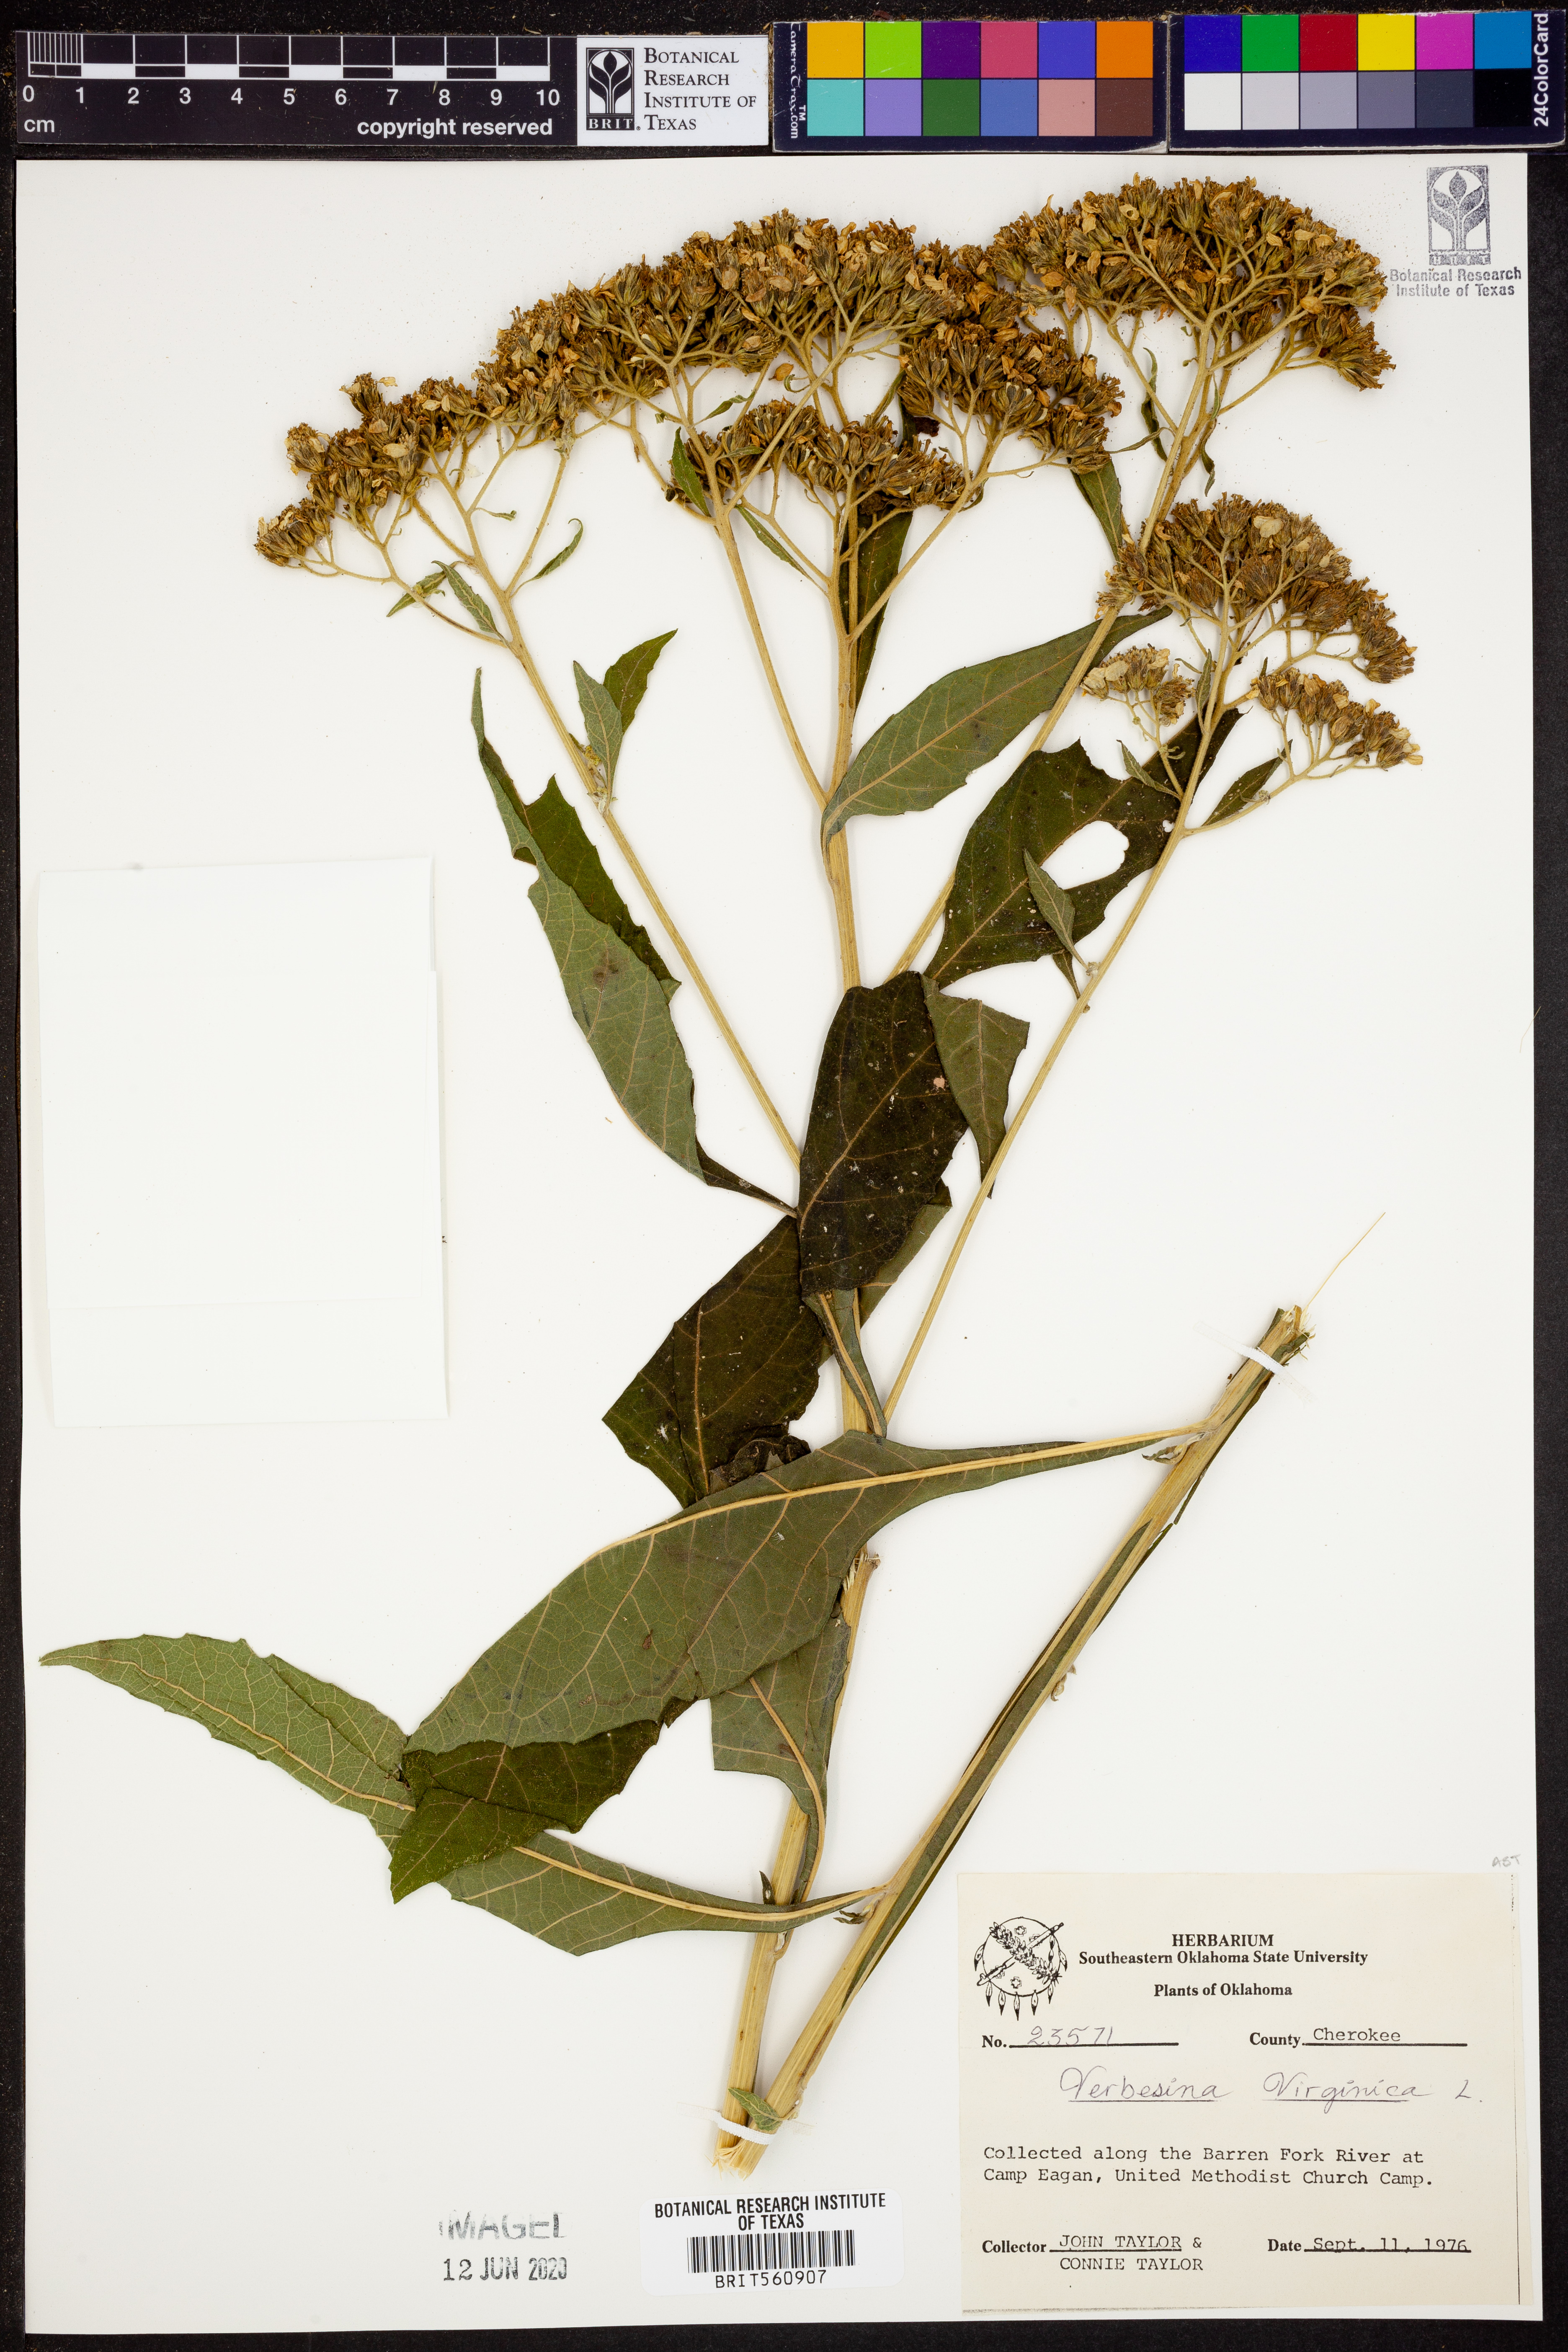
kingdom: Plantae
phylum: Tracheophyta
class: Magnoliopsida
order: Asterales
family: Asteraceae
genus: Verbesina
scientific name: Verbesina virginica
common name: Frostweed
